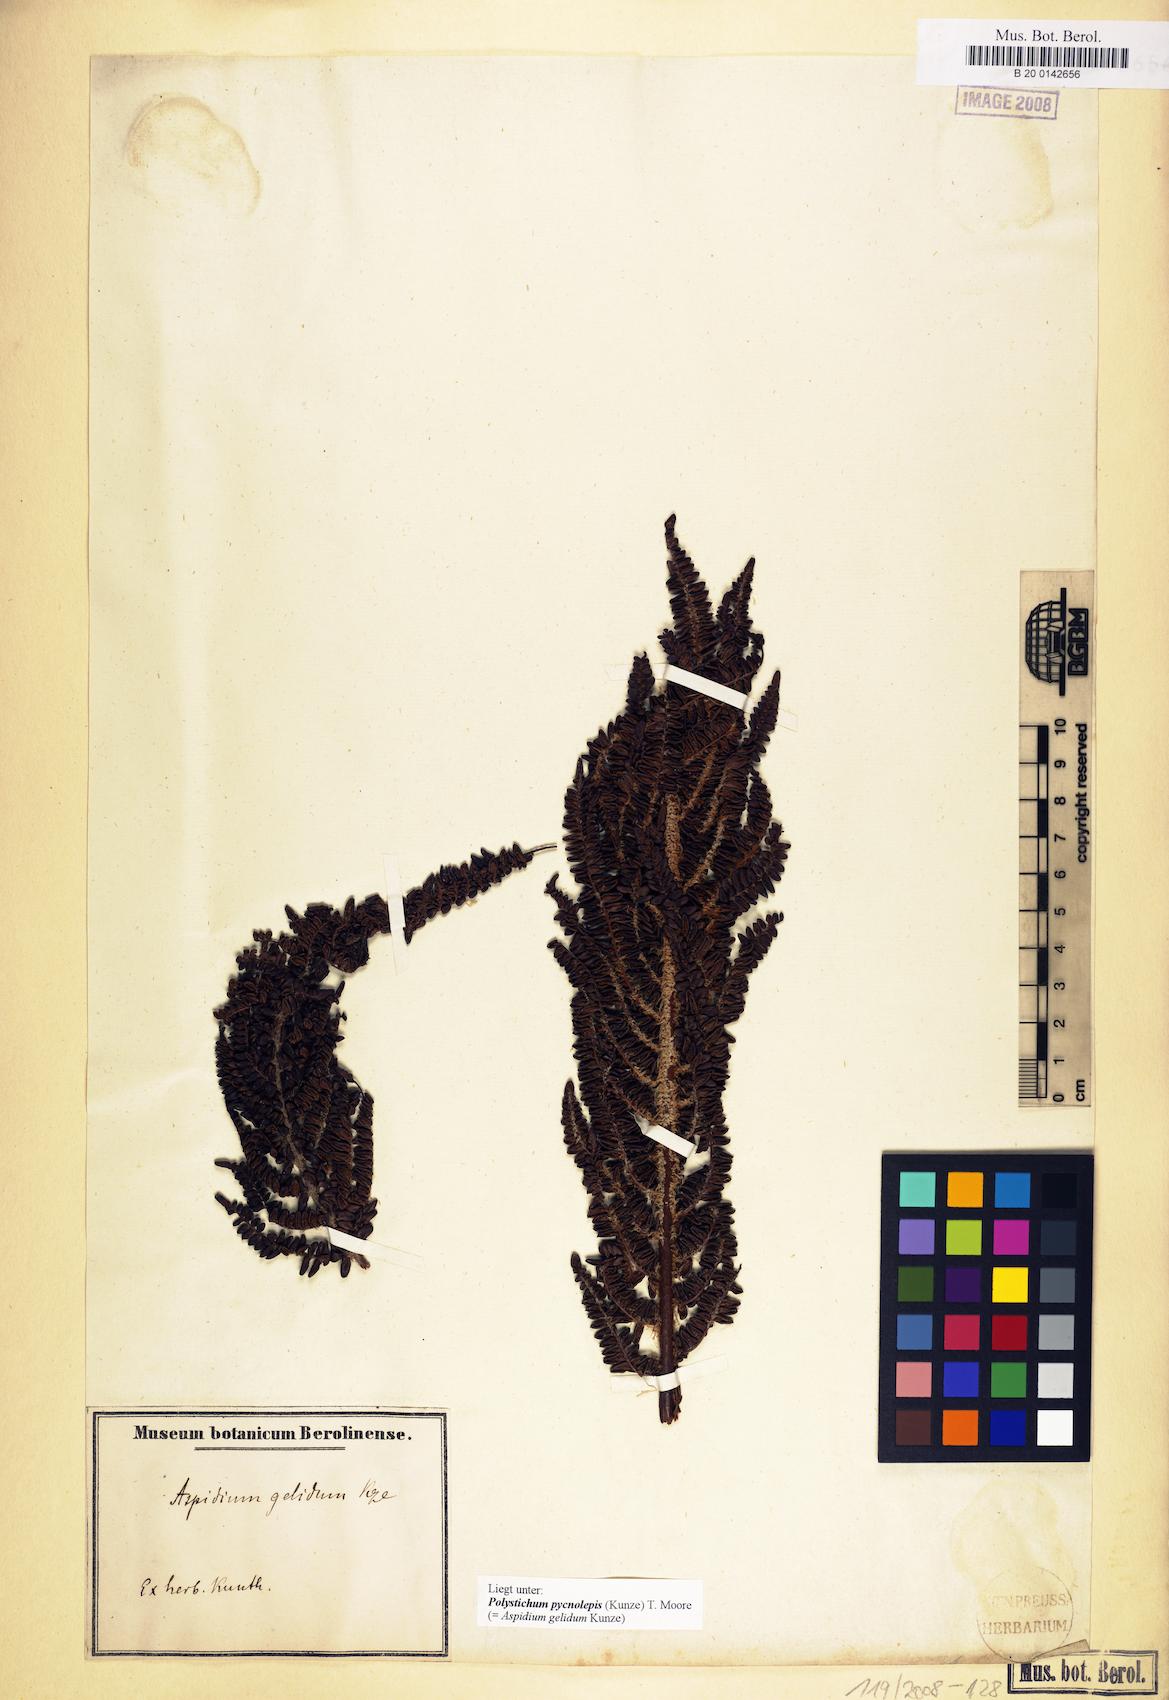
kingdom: Plantae
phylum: Tracheophyta
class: Polypodiopsida
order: Polypodiales
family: Dryopteridaceae
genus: Polystichum
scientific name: Polystichum pycnolepis
